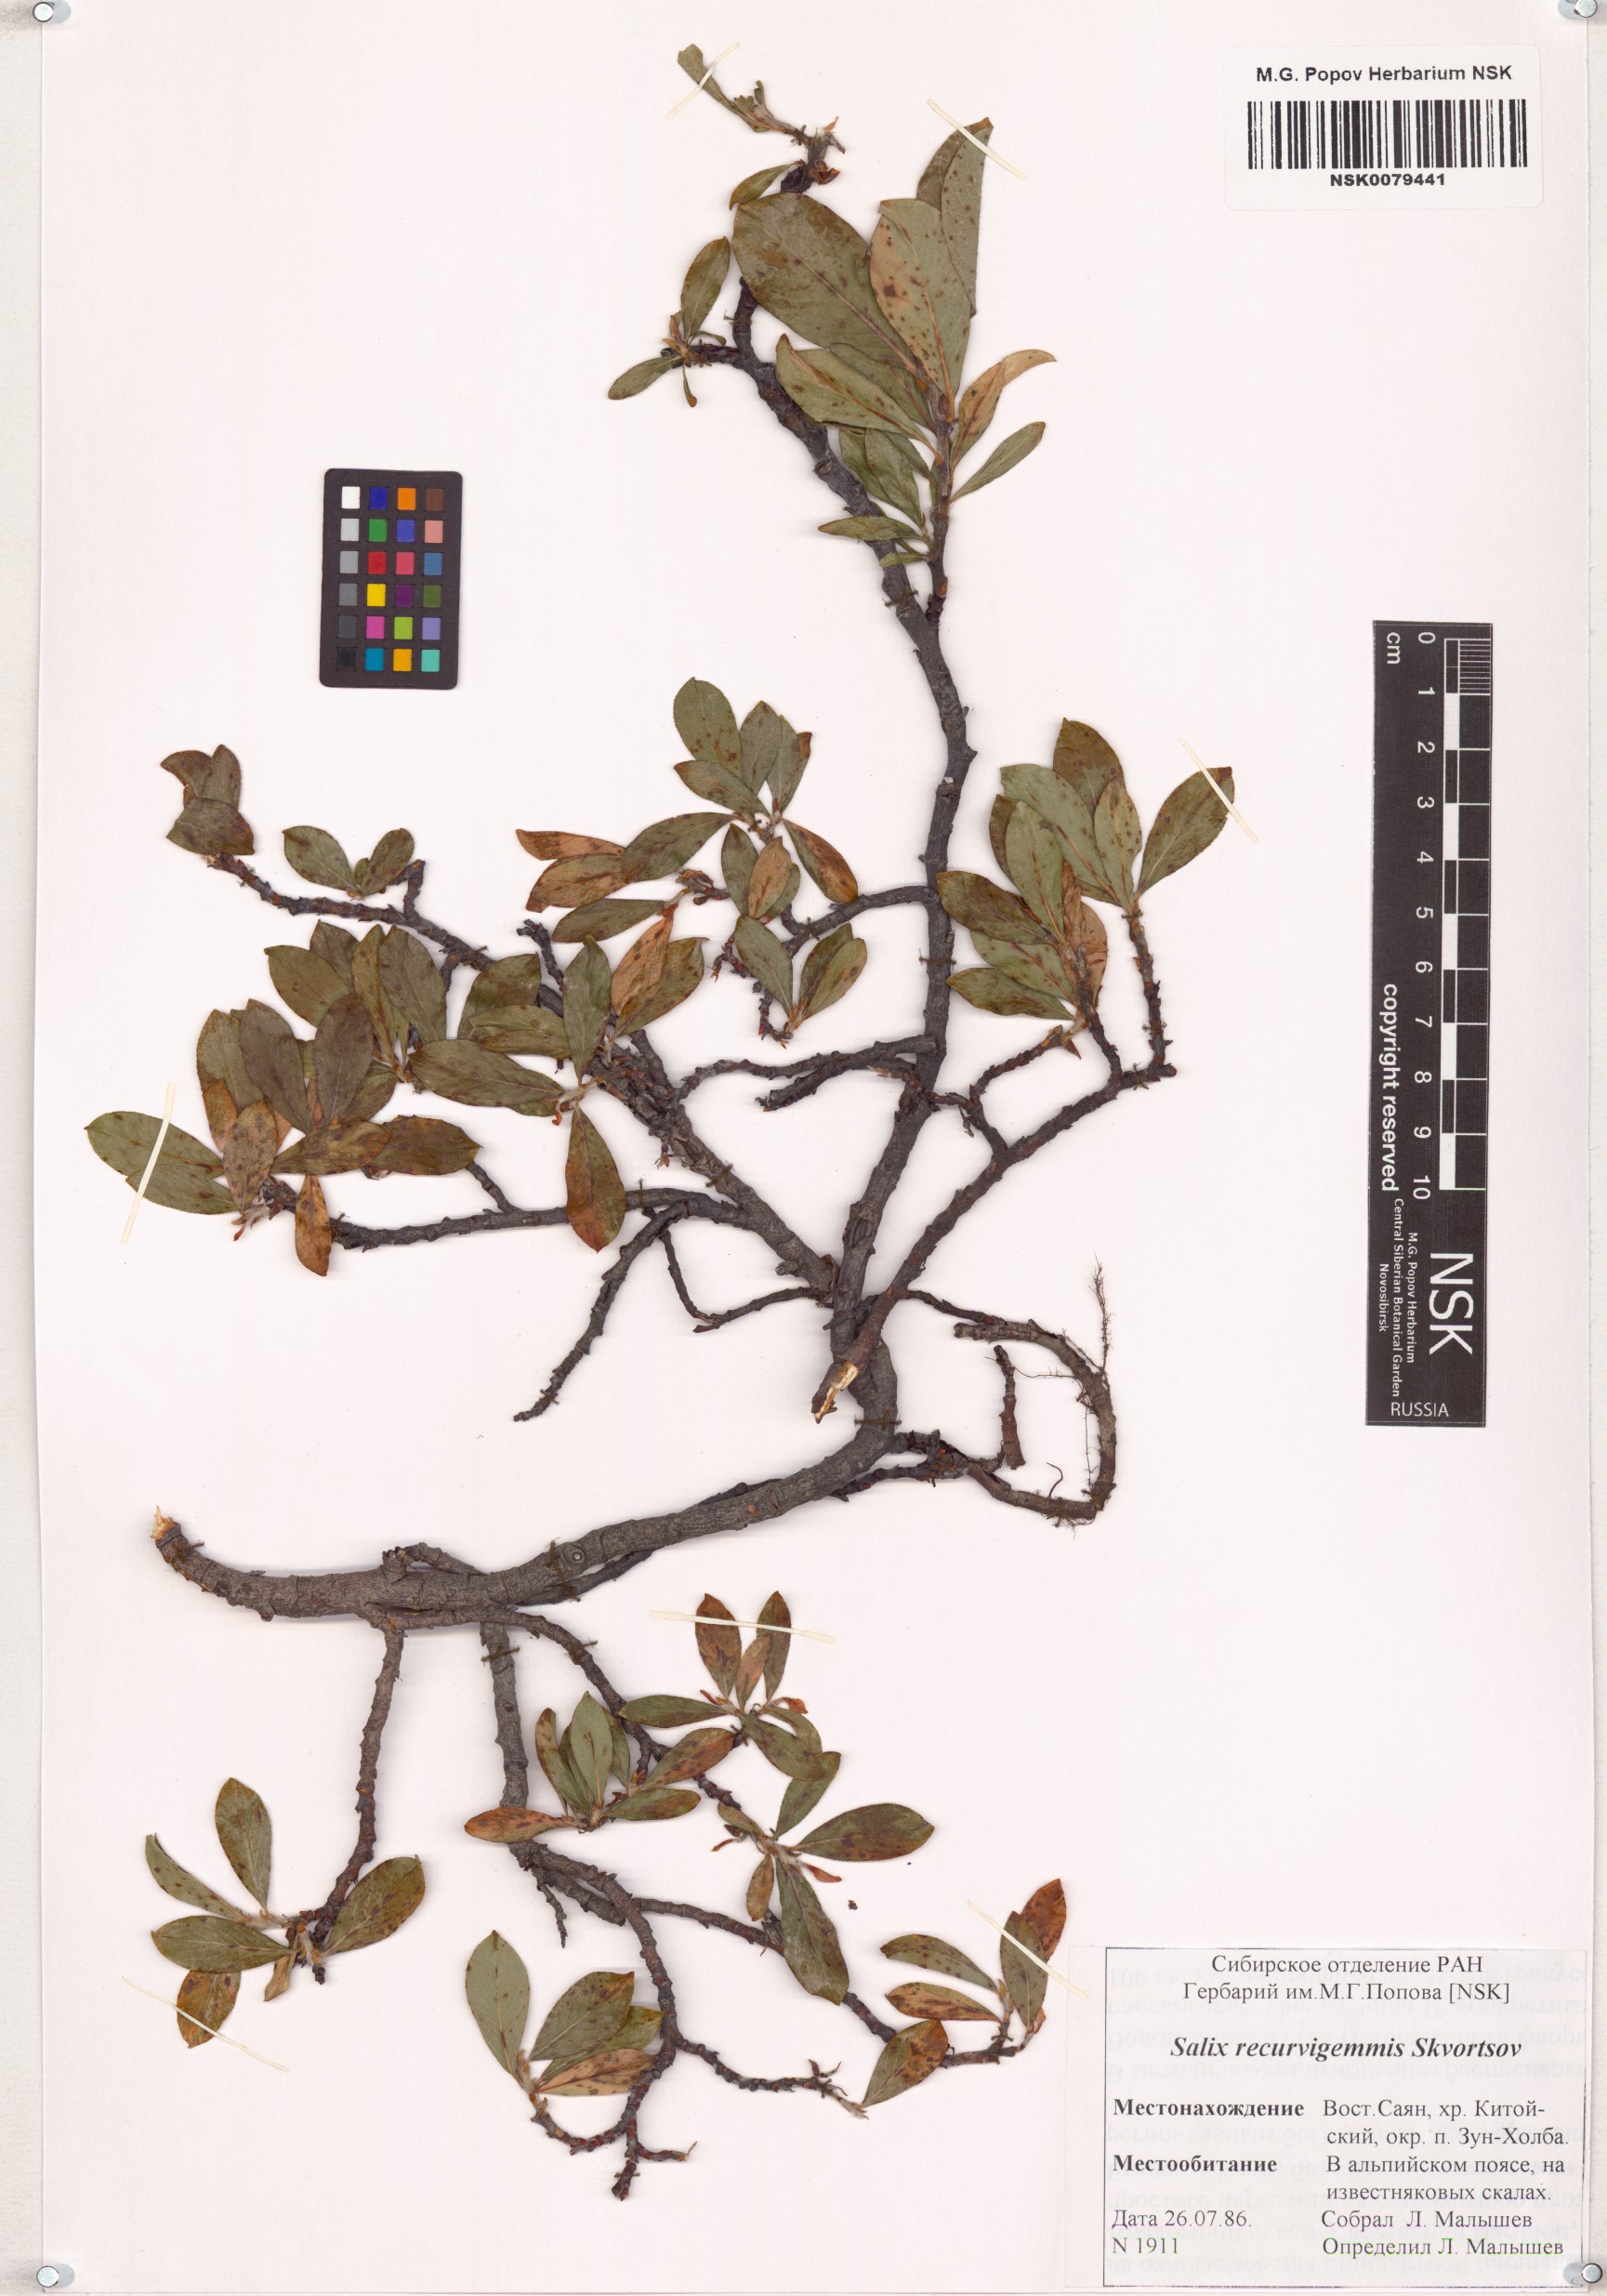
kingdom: Plantae
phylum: Tracheophyta
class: Magnoliopsida
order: Malpighiales
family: Salicaceae
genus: Salix
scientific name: Salix recurvigemmata
